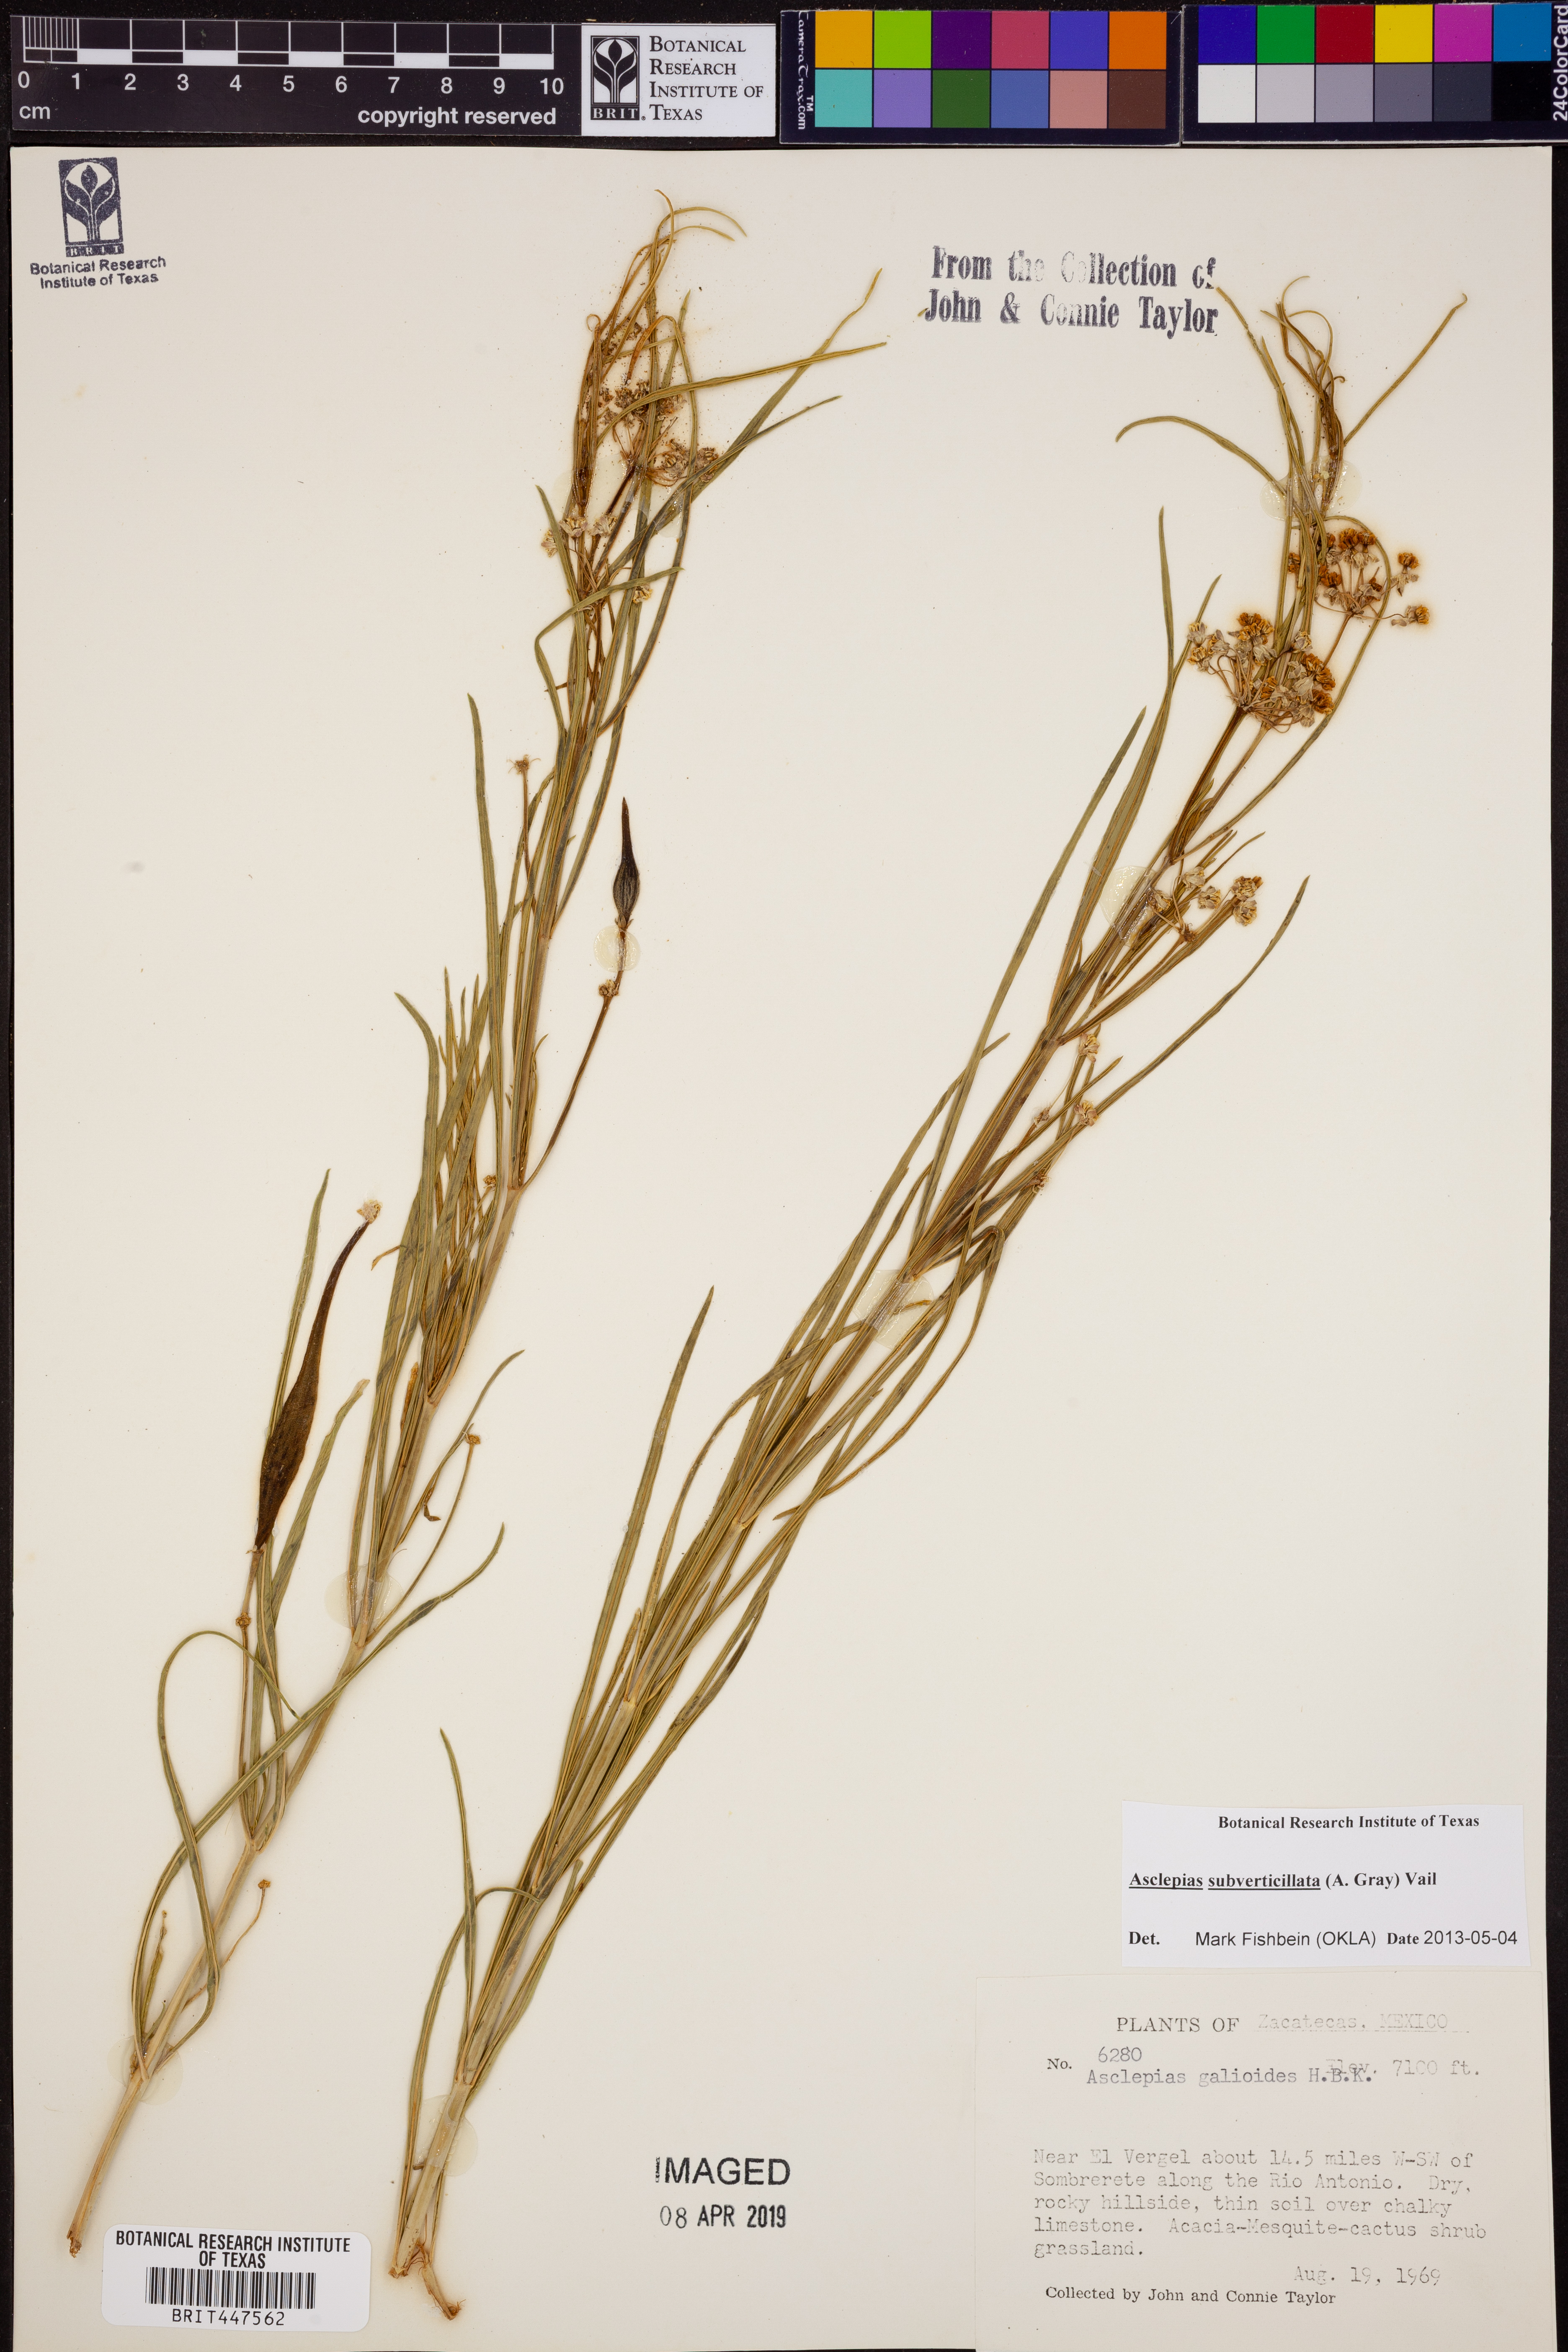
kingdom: Plantae
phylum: Tracheophyta
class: Magnoliopsida
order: Gentianales
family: Apocynaceae
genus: Asclepias
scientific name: Asclepias subverticillata
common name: Horsetail milkweed
